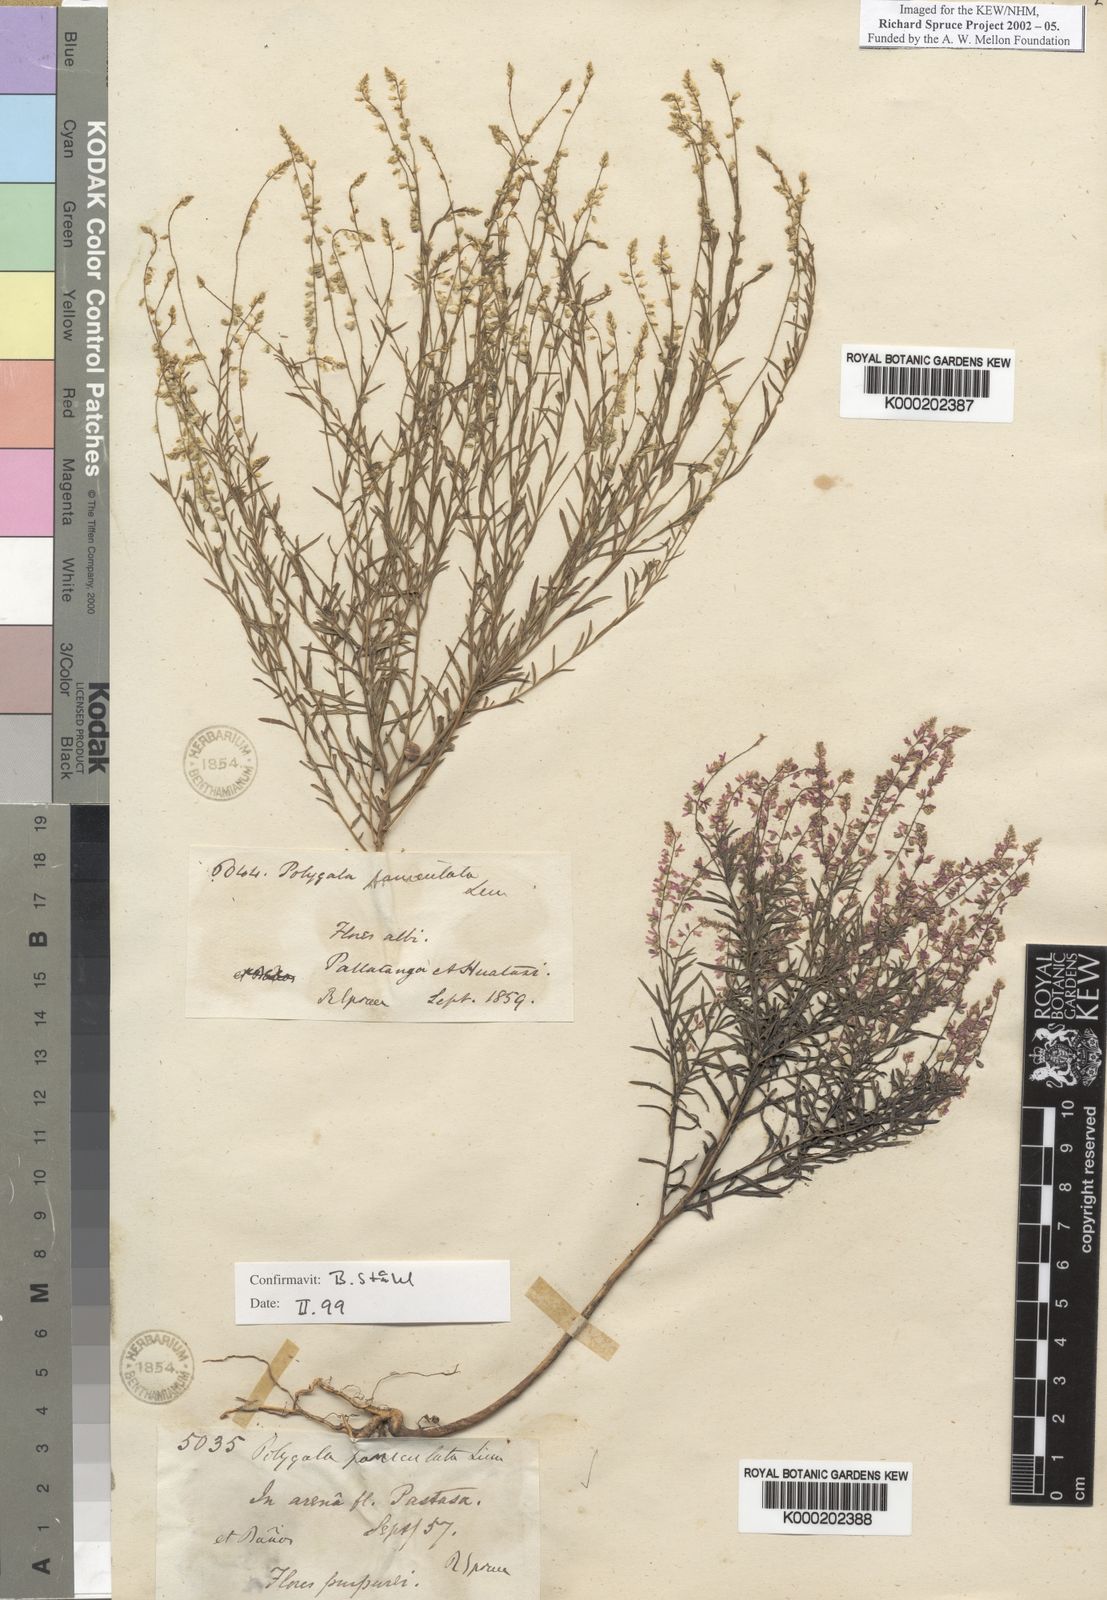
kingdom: Plantae
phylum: Tracheophyta
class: Magnoliopsida
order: Fabales
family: Polygalaceae
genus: Polygala
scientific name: Polygala paniculata
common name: Orosne
